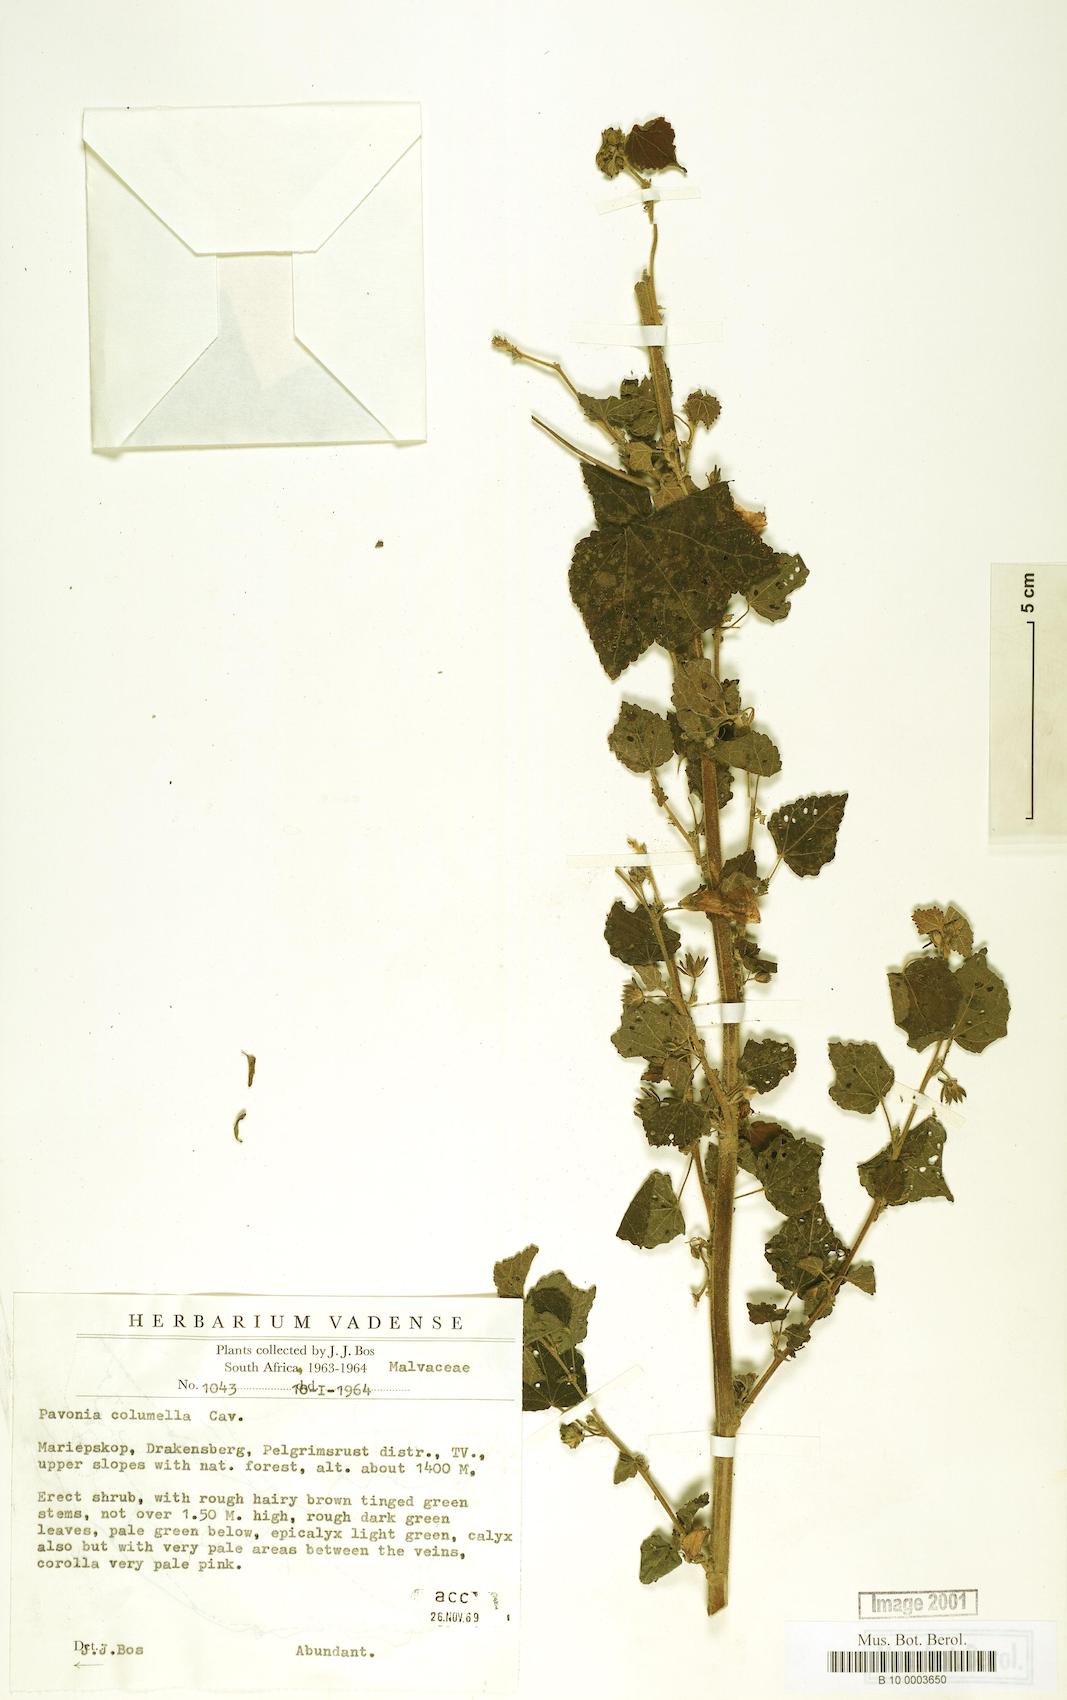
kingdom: Plantae
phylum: Tracheophyta
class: Magnoliopsida
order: Malvales
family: Malvaceae
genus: Pavonia
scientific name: Pavonia columella
